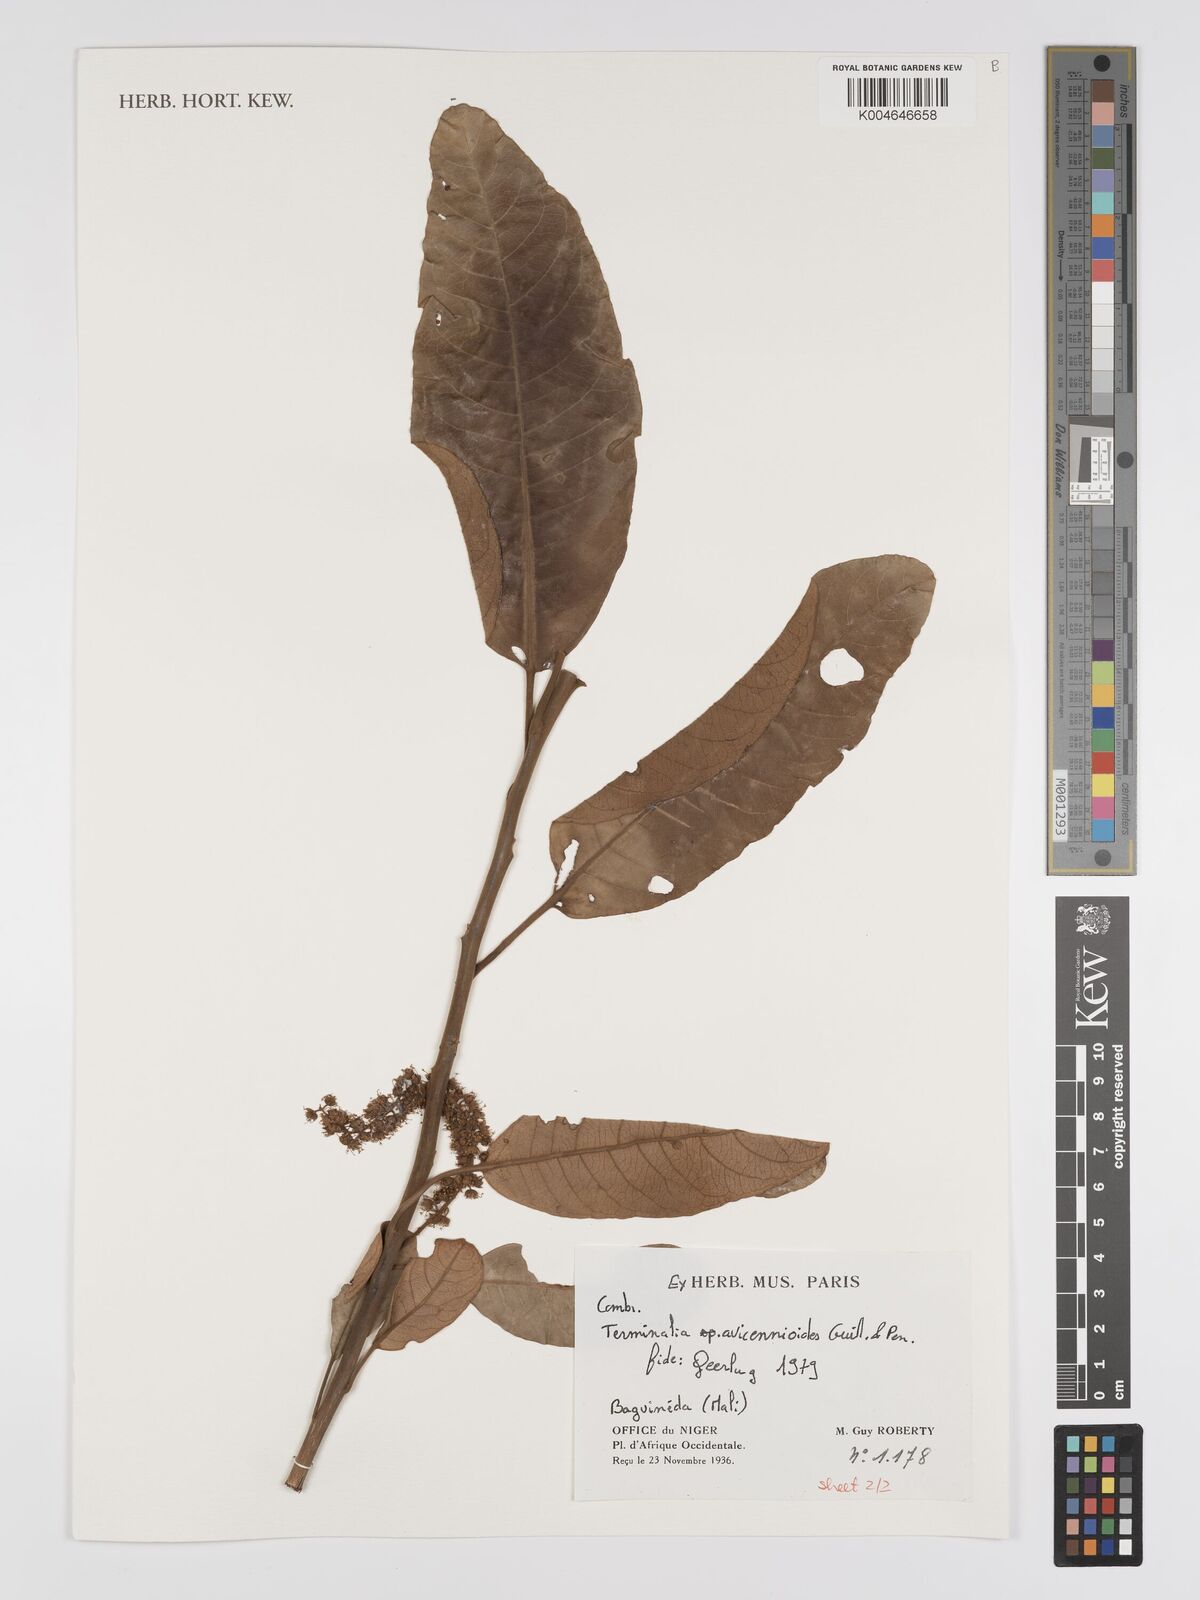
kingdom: Plantae
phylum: Tracheophyta
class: Magnoliopsida
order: Myrtales
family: Combretaceae
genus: Terminalia
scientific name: Terminalia avicennioides
